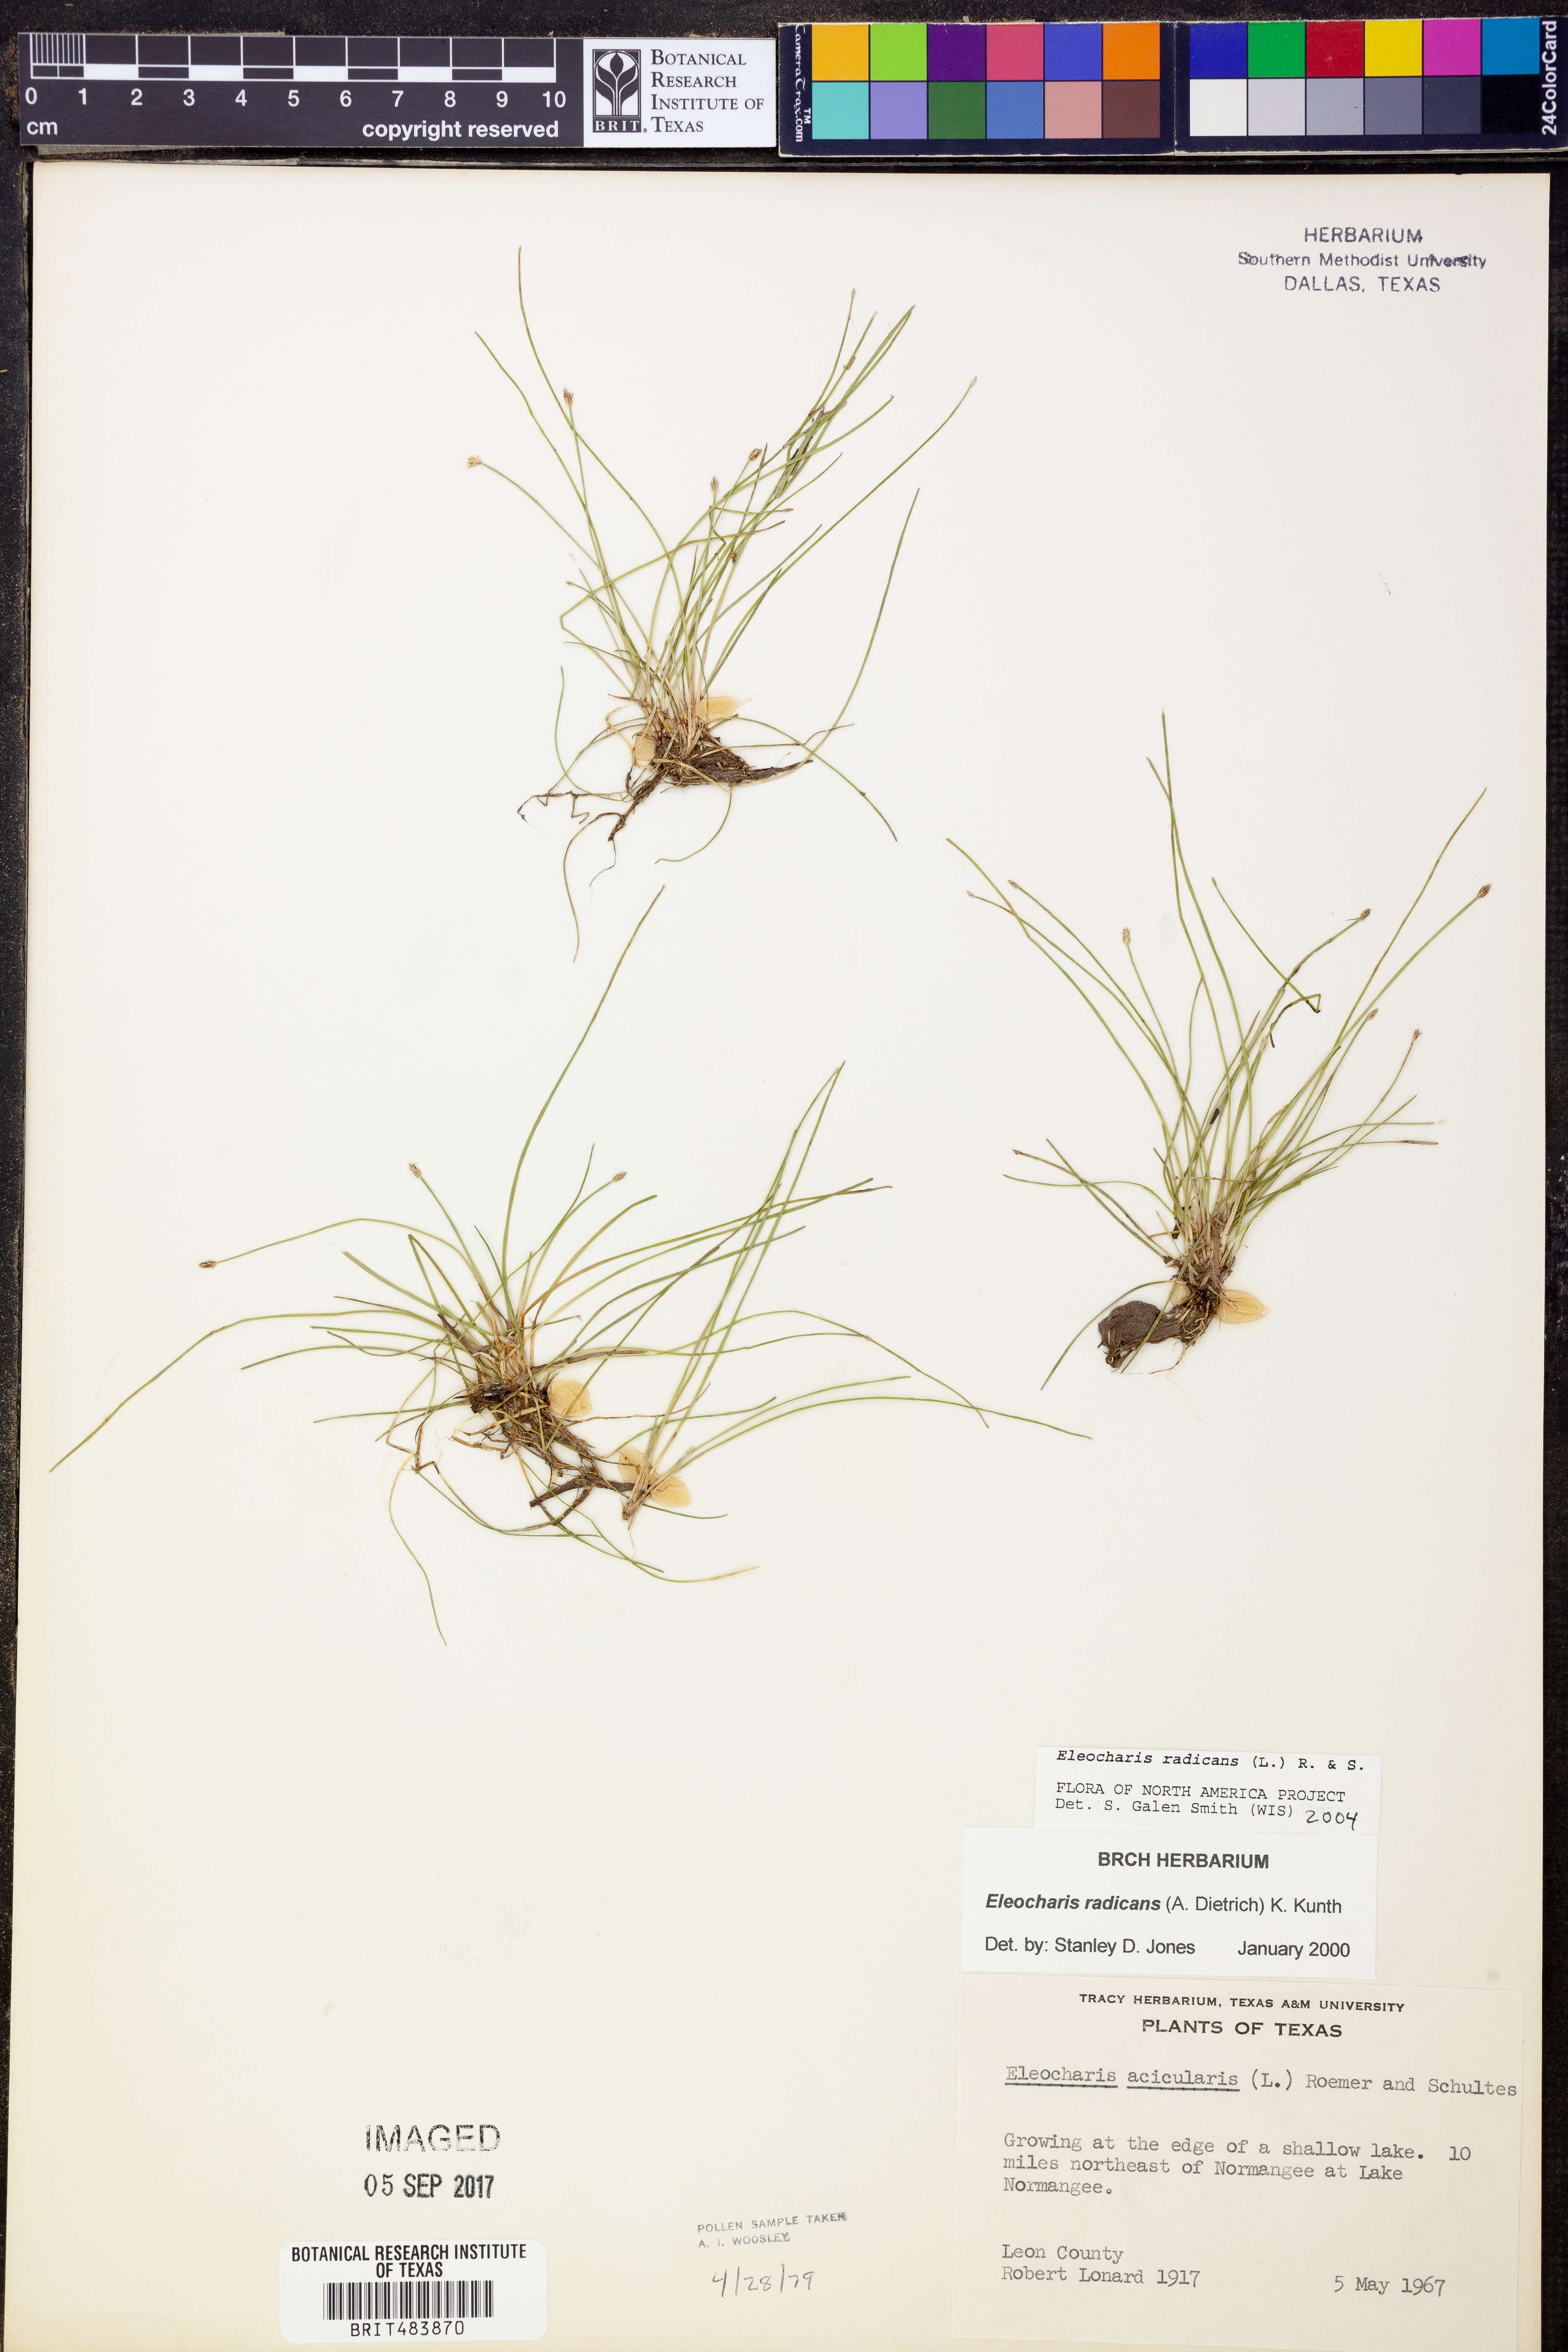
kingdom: Plantae
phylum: Tracheophyta
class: Liliopsida
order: Poales
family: Cyperaceae
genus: Eleocharis
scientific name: Eleocharis exigua
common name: Spikesedge
